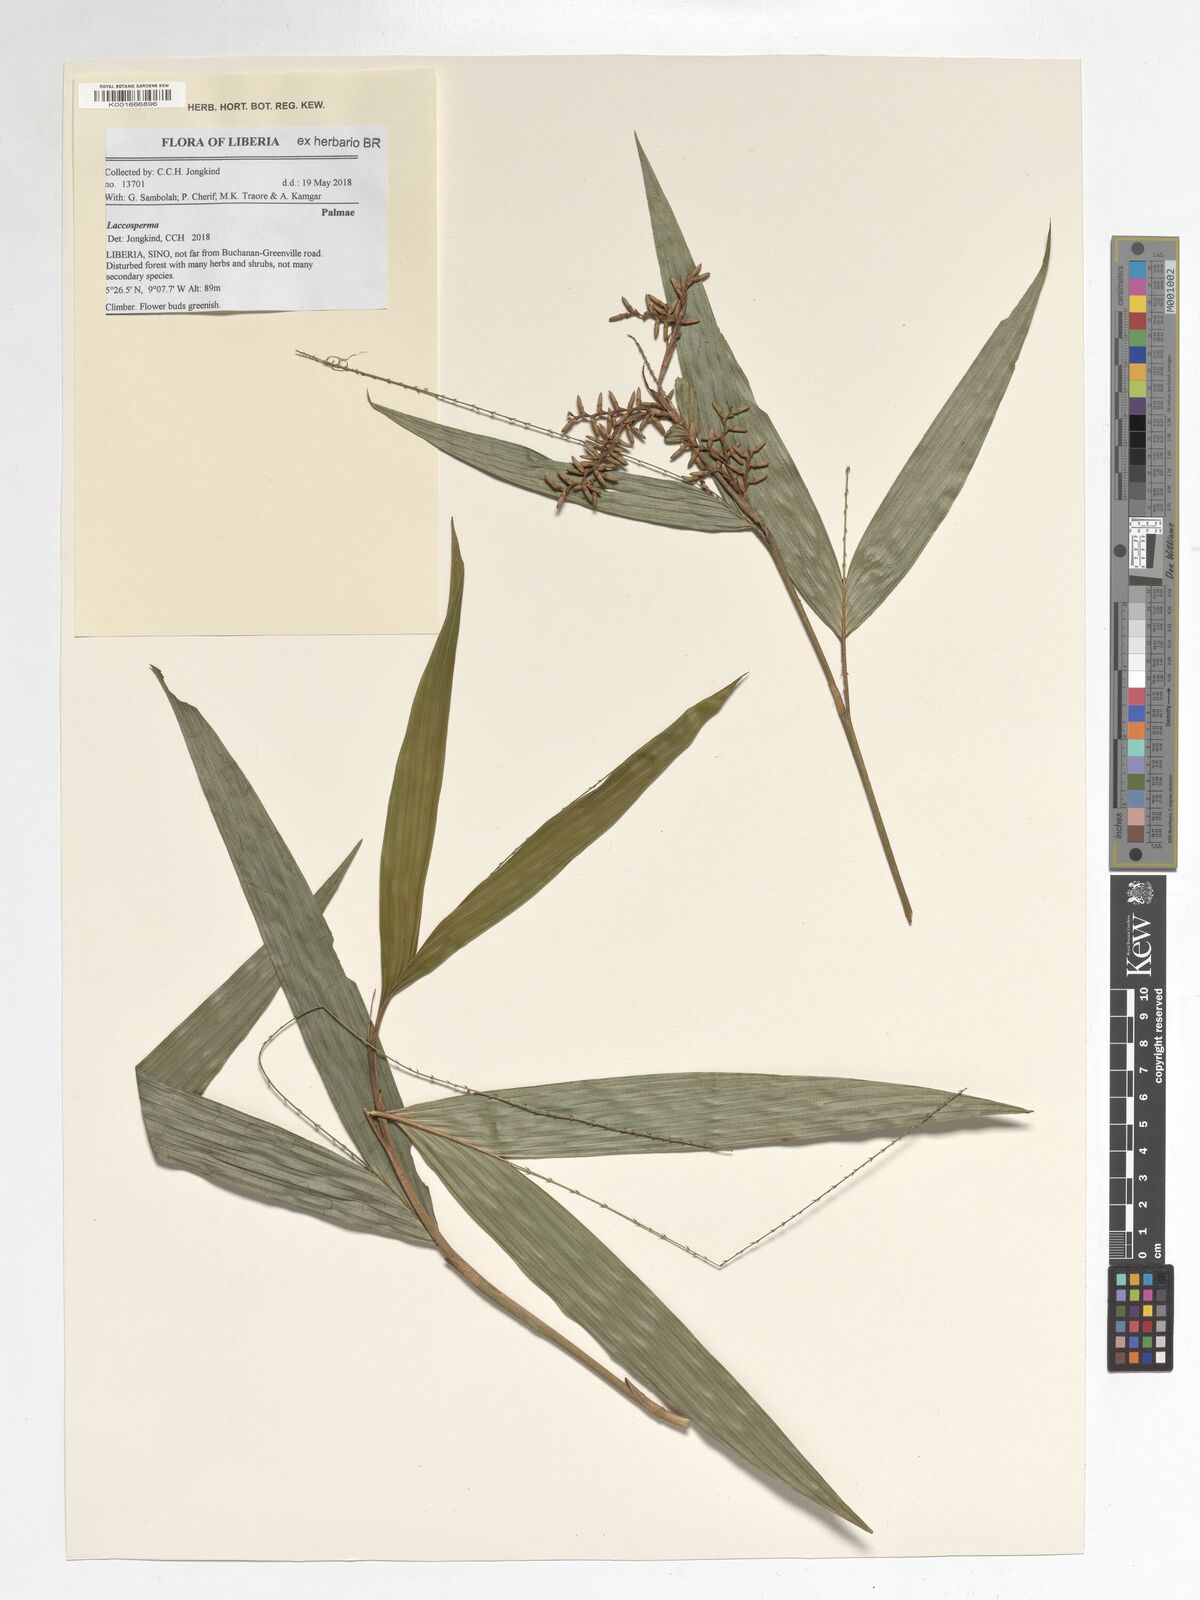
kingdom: Plantae
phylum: Tracheophyta
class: Liliopsida
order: Arecales
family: Arecaceae
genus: Laccosperma
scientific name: Laccosperma
